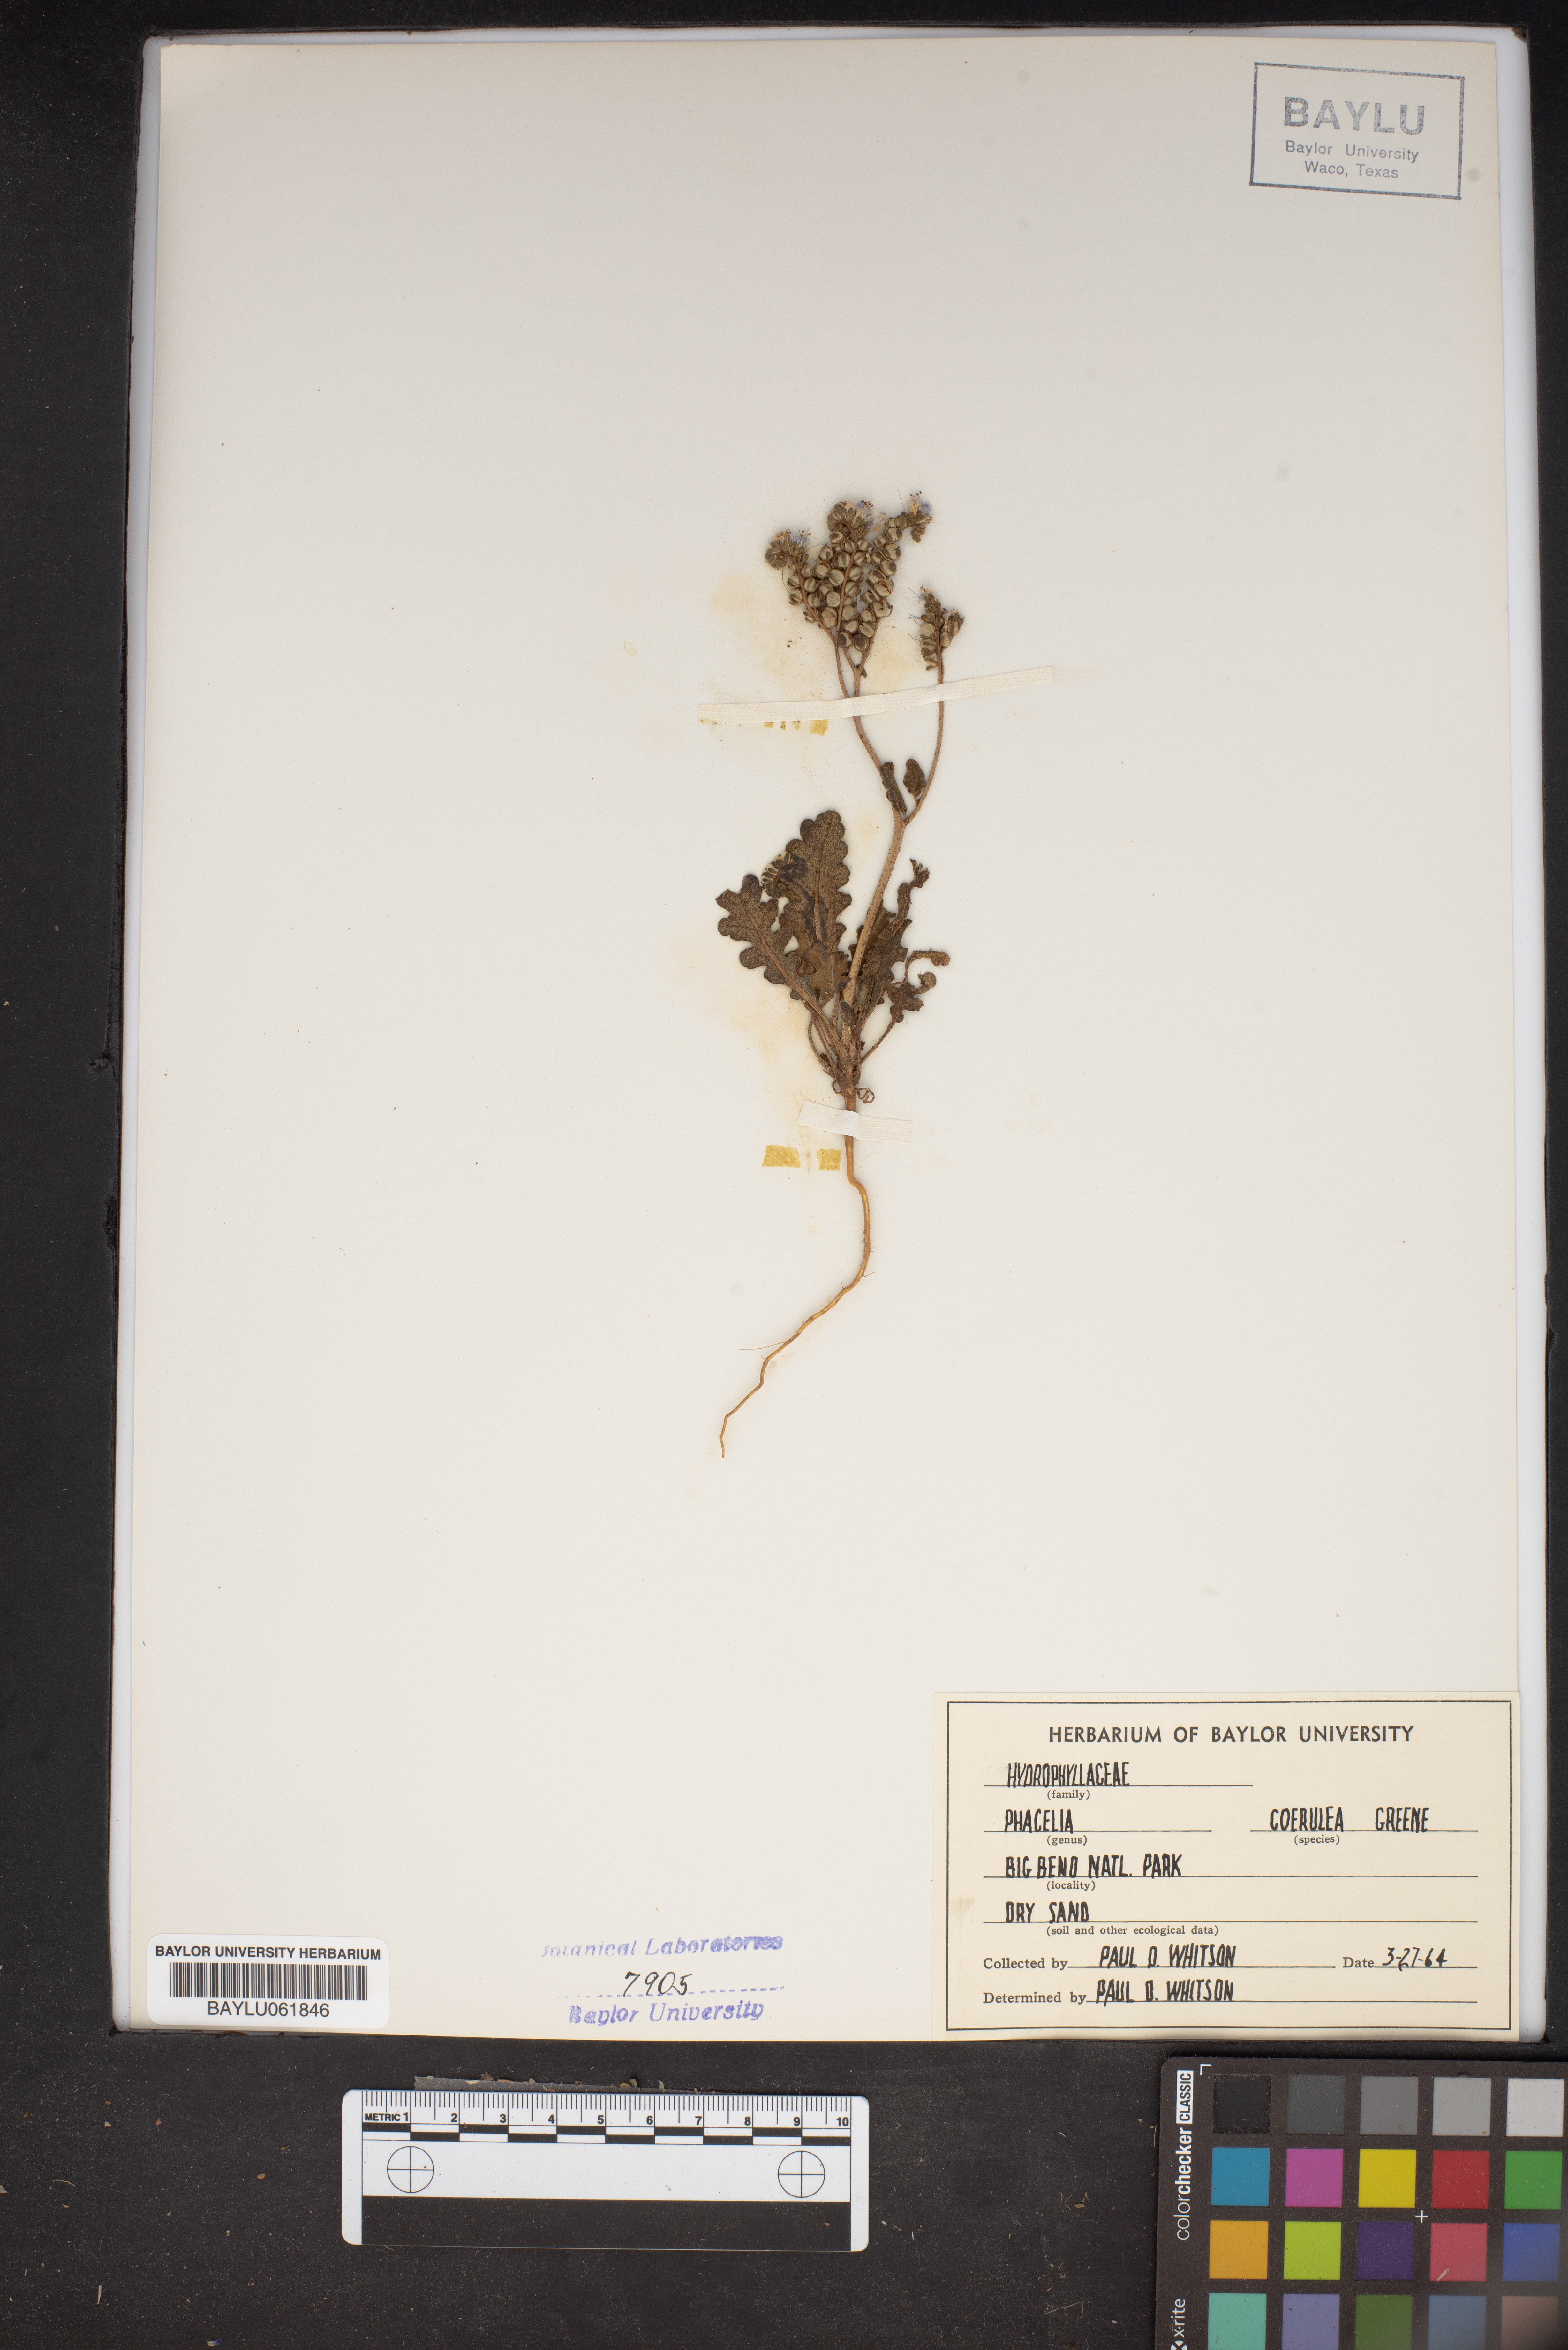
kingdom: Plantae
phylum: Tracheophyta
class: Magnoliopsida
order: Boraginales
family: Hydrophyllaceae
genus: Phacelia
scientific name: Phacelia coerulea
